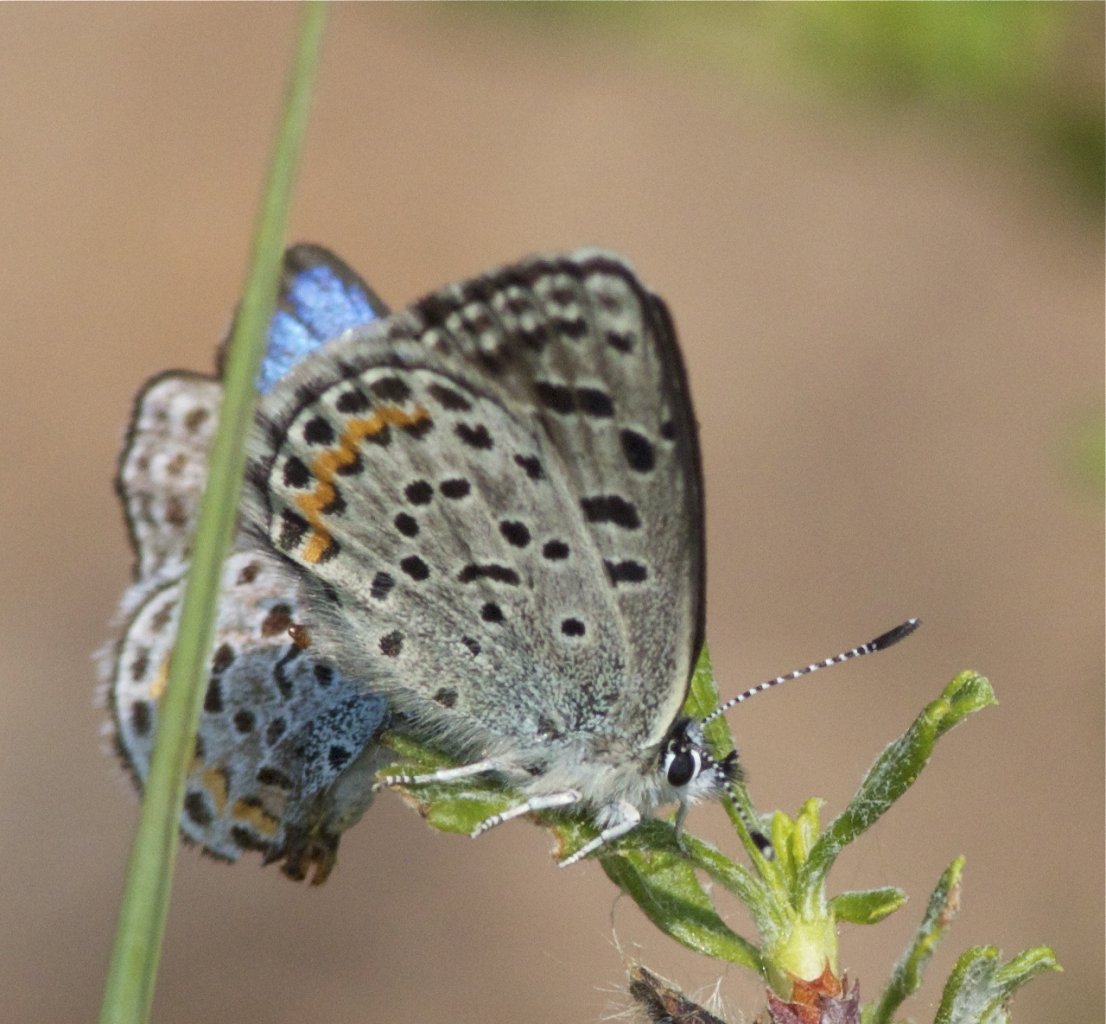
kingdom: Animalia
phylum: Arthropoda
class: Insecta
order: Lepidoptera
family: Lycaenidae
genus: Euphilotes
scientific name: Euphilotes enoptes
